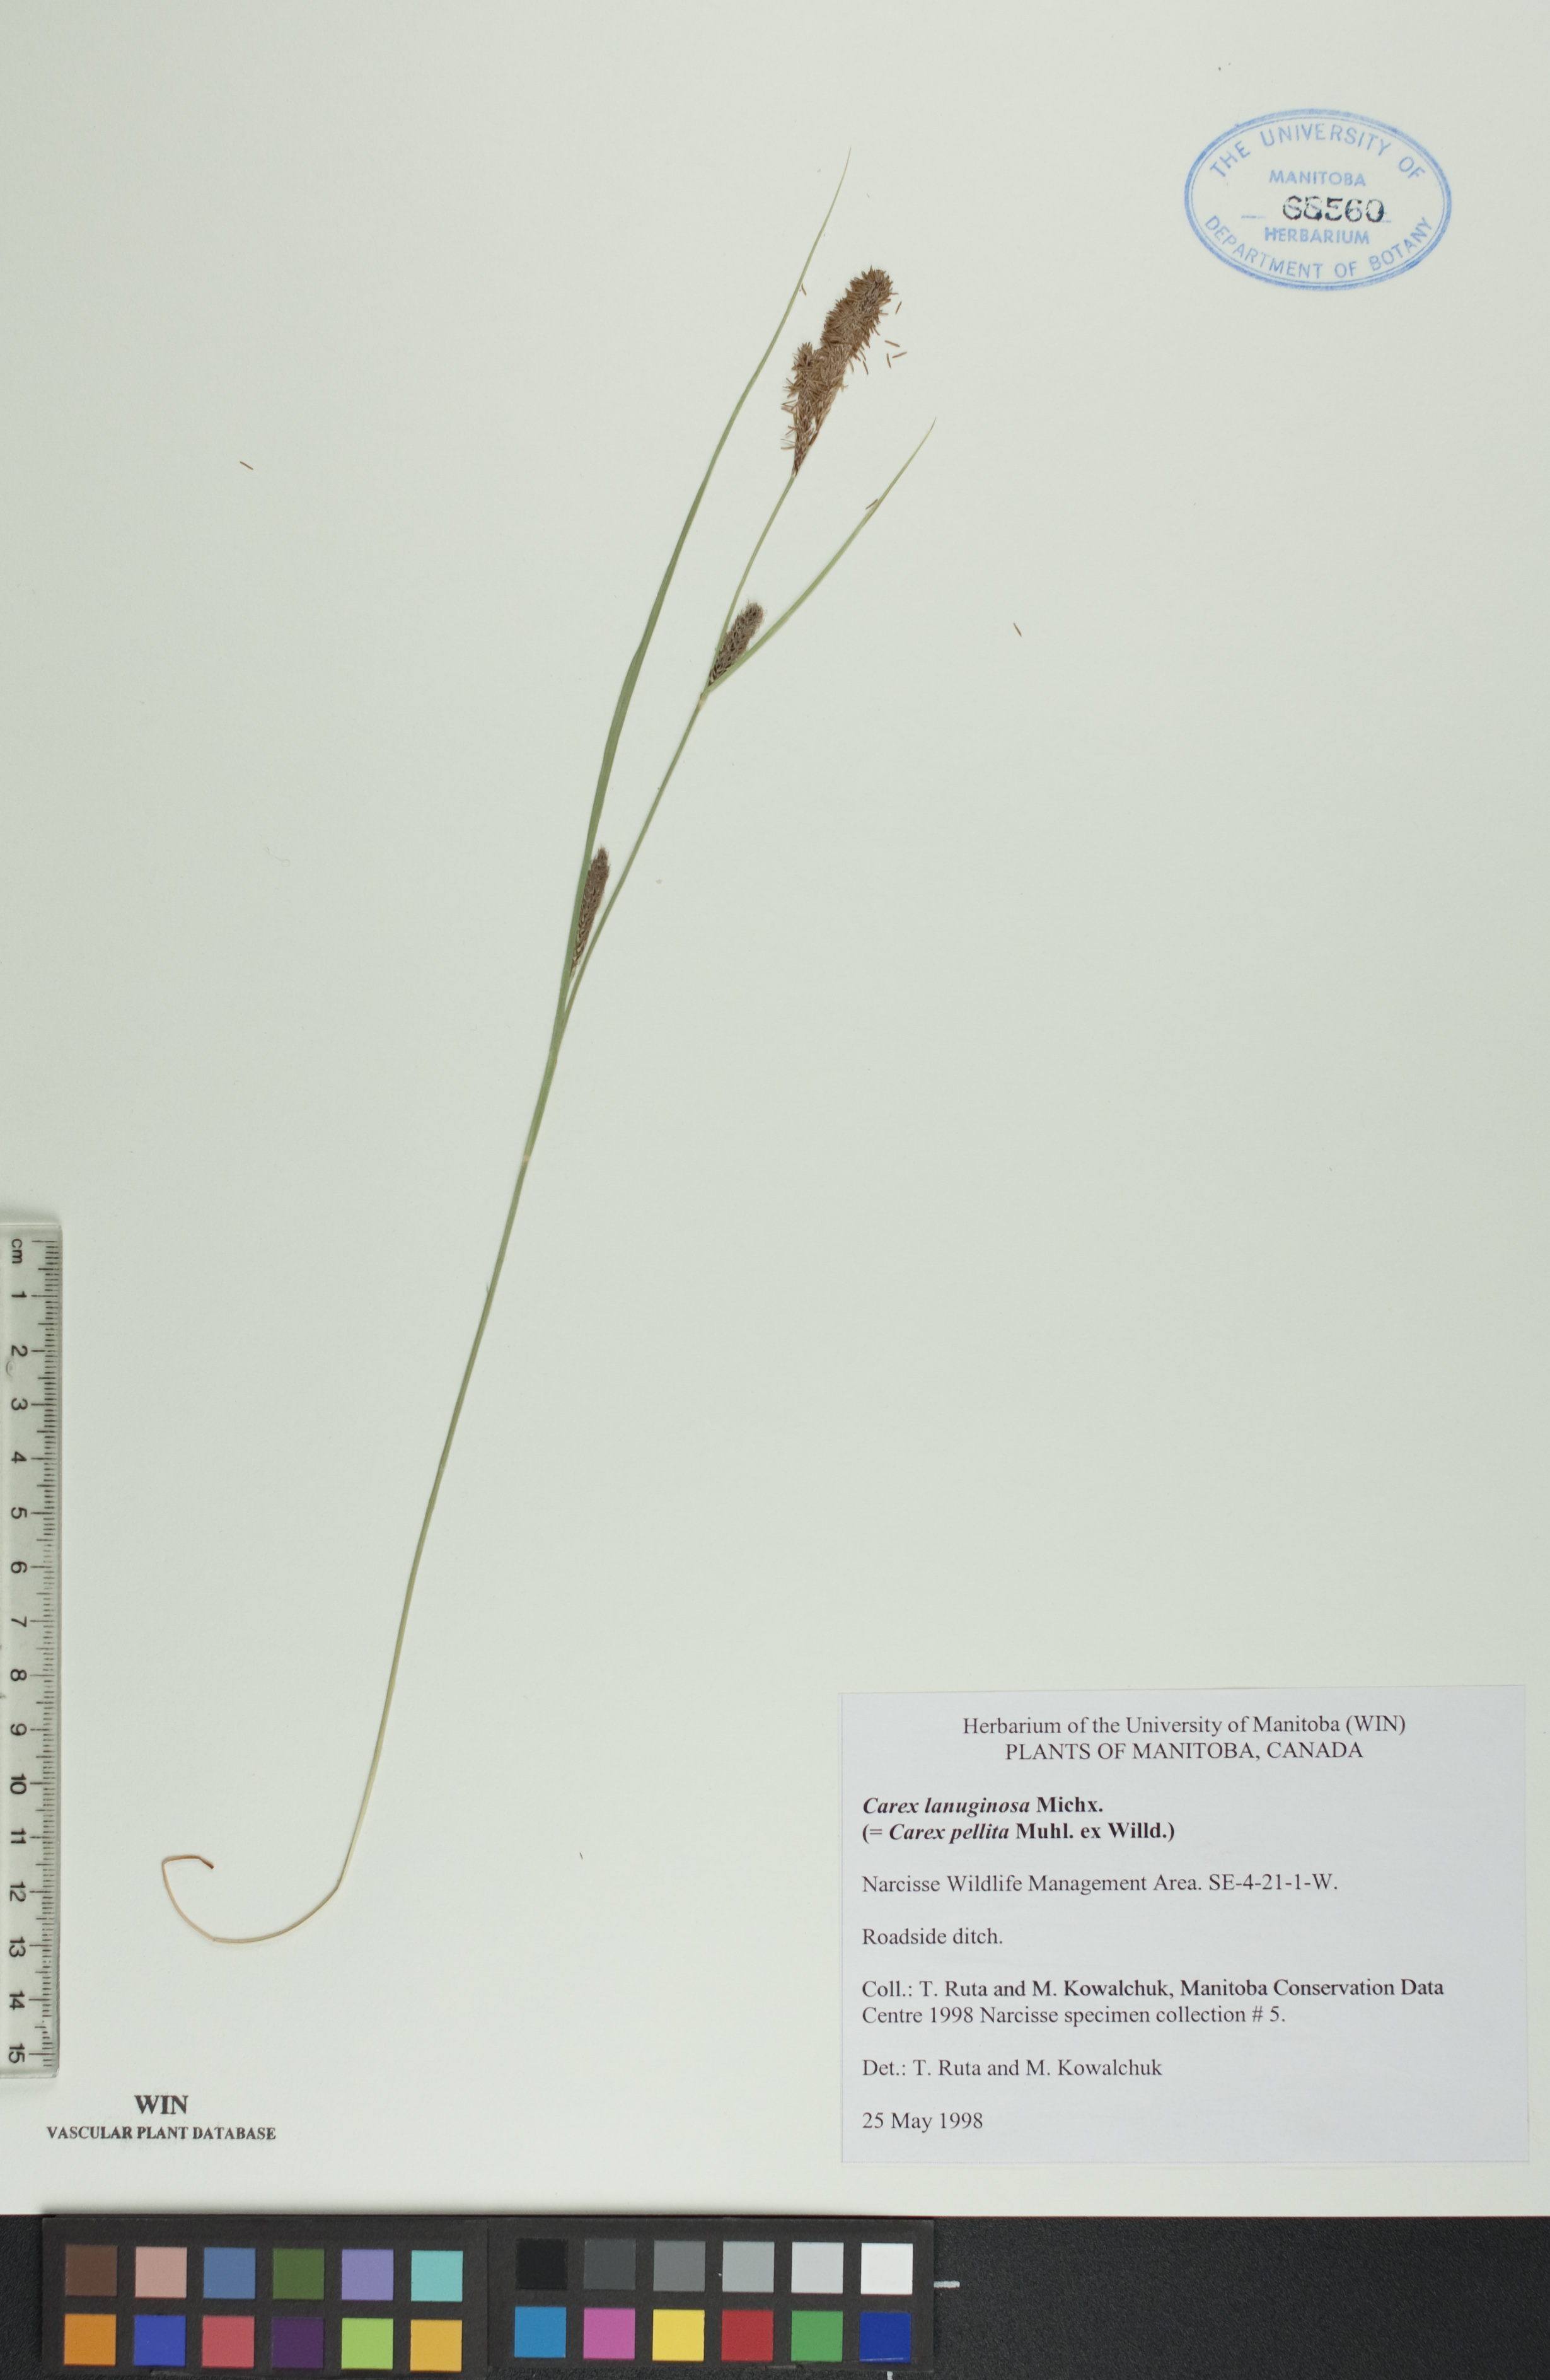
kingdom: Plantae
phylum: Tracheophyta
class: Liliopsida
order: Poales
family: Cyperaceae
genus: Carex
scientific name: Carex lasiocarpa
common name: Slender sedge
